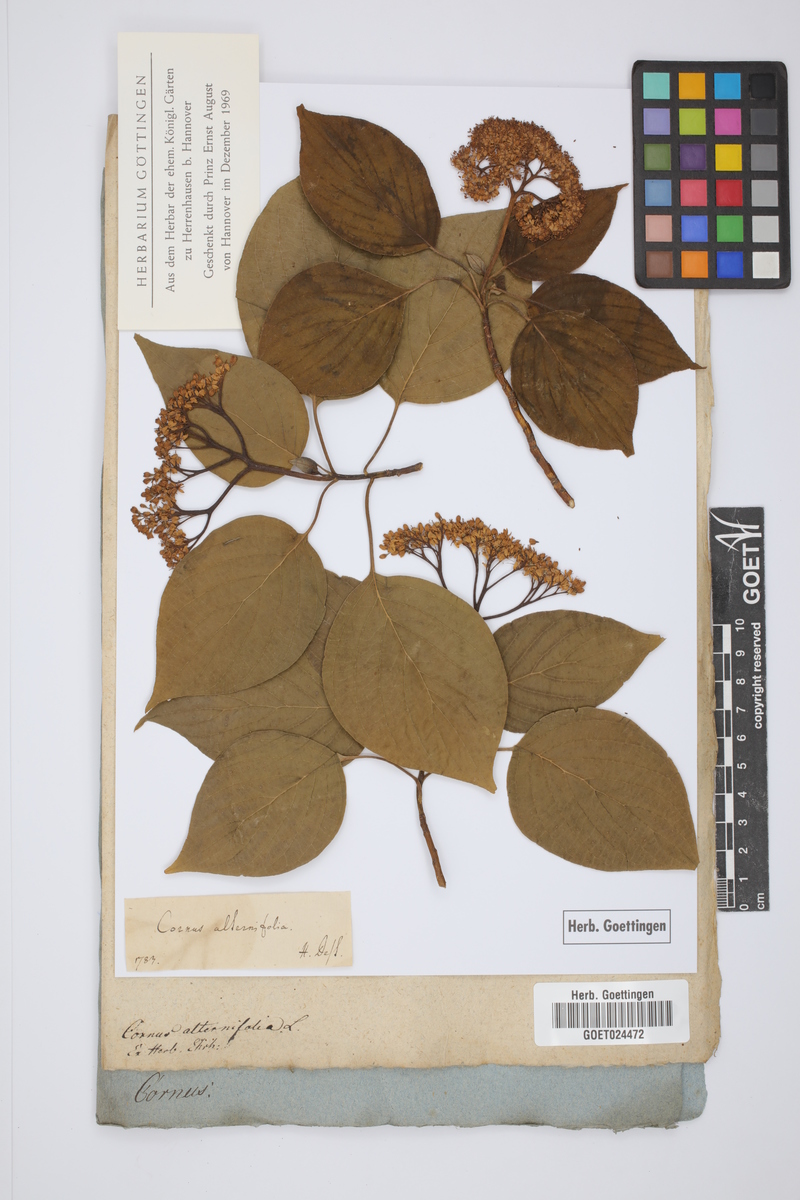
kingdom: Plantae
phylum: Tracheophyta
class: Magnoliopsida
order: Cornales
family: Cornaceae
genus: Cornus
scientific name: Cornus alternifolia
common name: Pagoda dogwood
